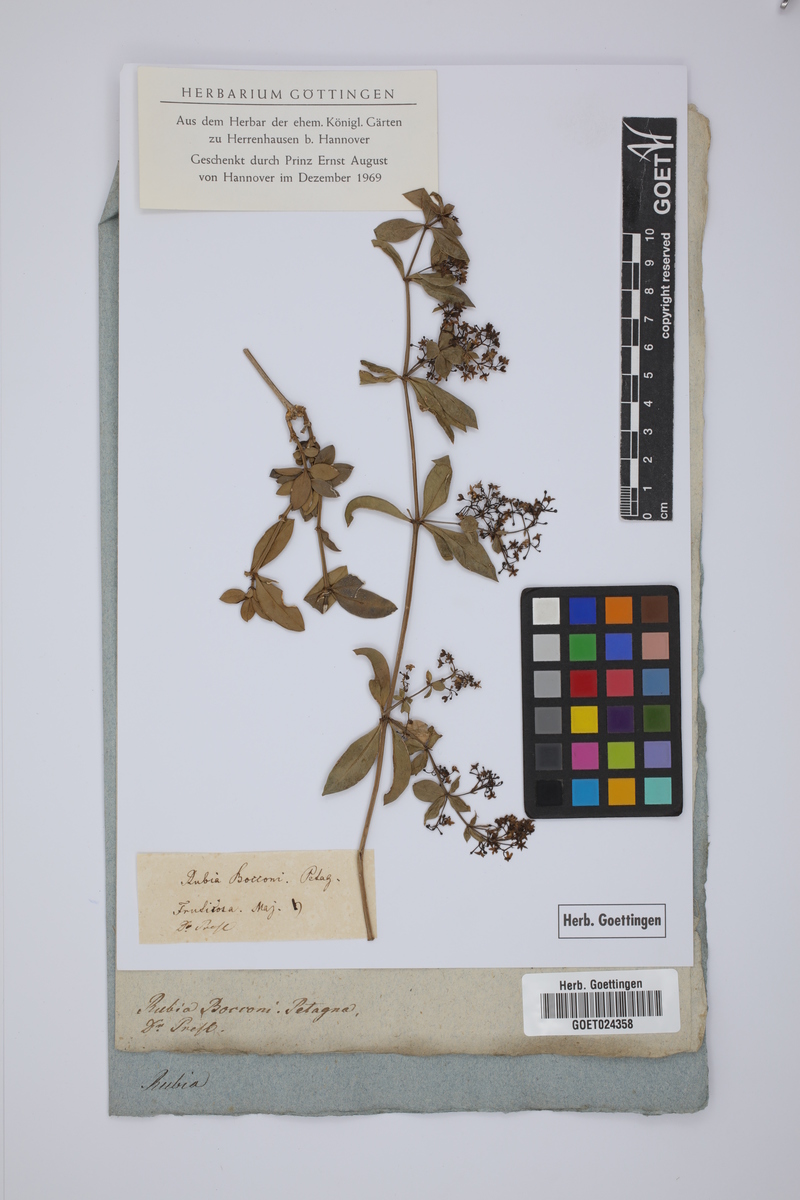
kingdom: Plantae
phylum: Tracheophyta
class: Magnoliopsida
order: Gentianales
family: Rubiaceae
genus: Rubia
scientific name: Rubia peregrina
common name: Wild madder
